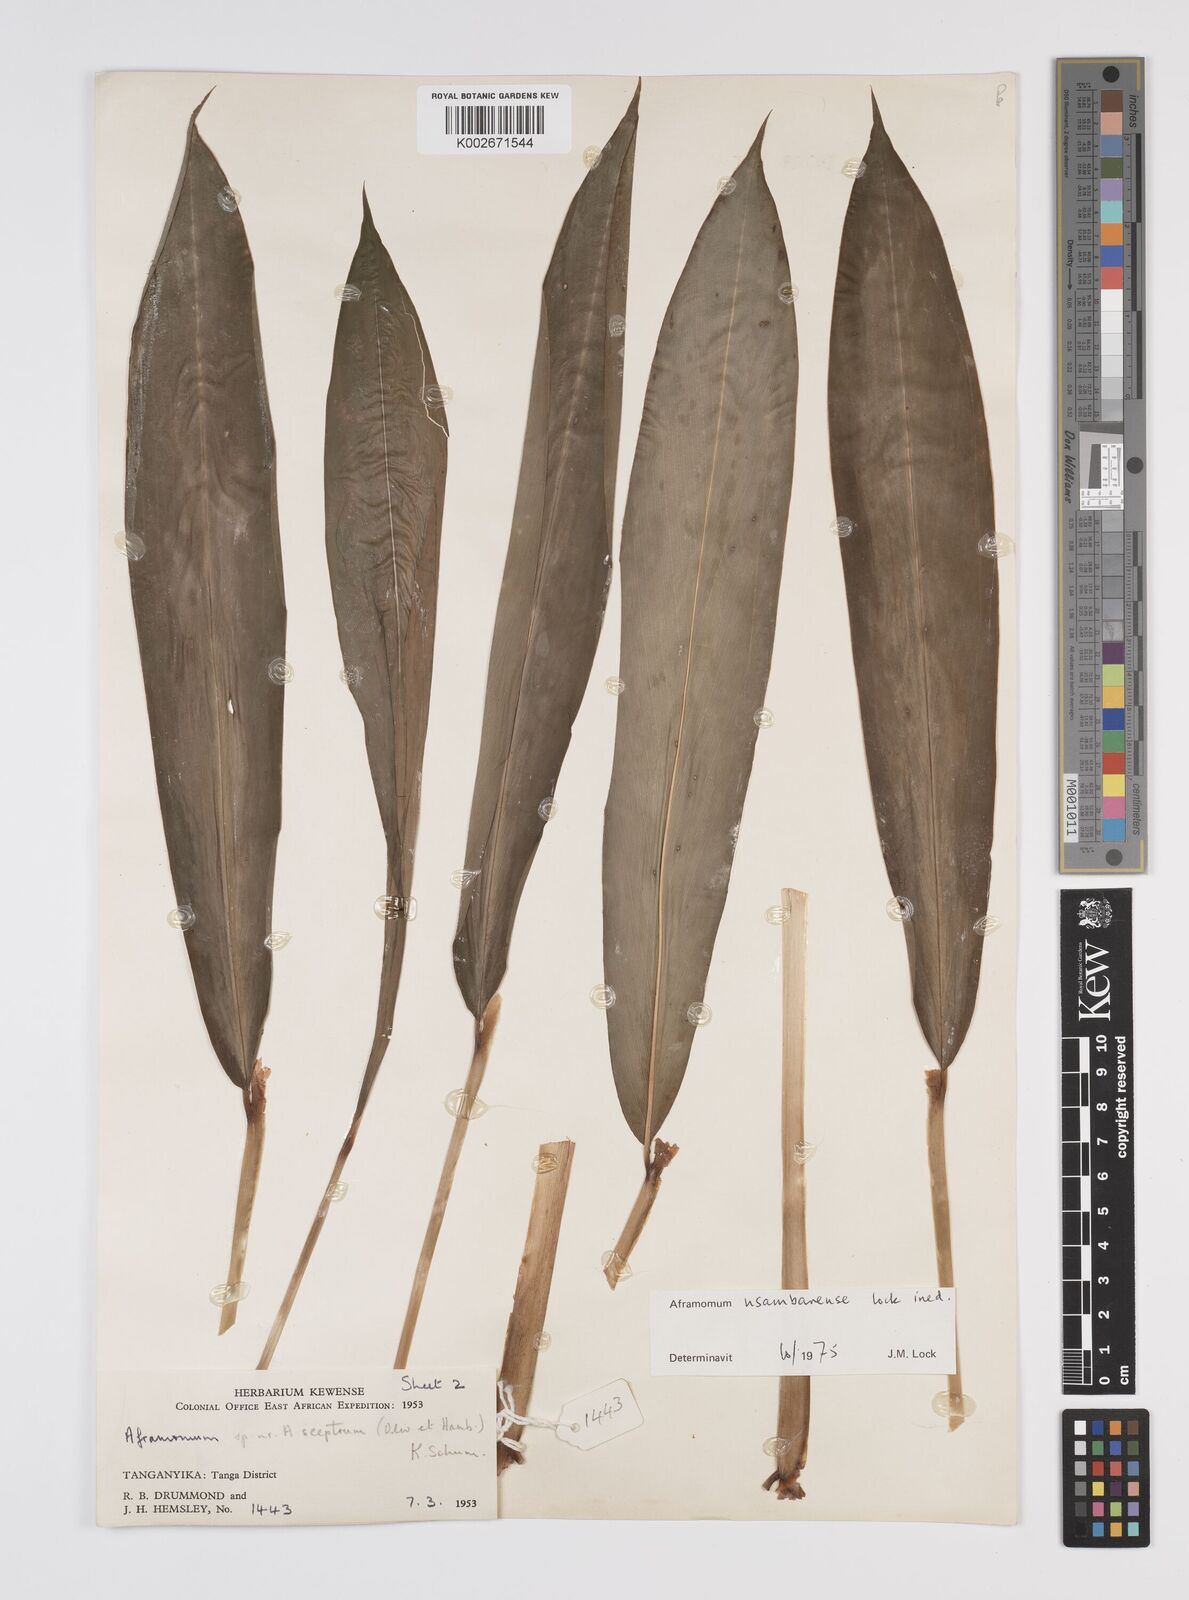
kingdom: Plantae
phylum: Tracheophyta
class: Liliopsida
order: Zingiberales
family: Zingiberaceae
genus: Aframomum
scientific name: Aframomum corrorima
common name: Ethiopian cardamom
